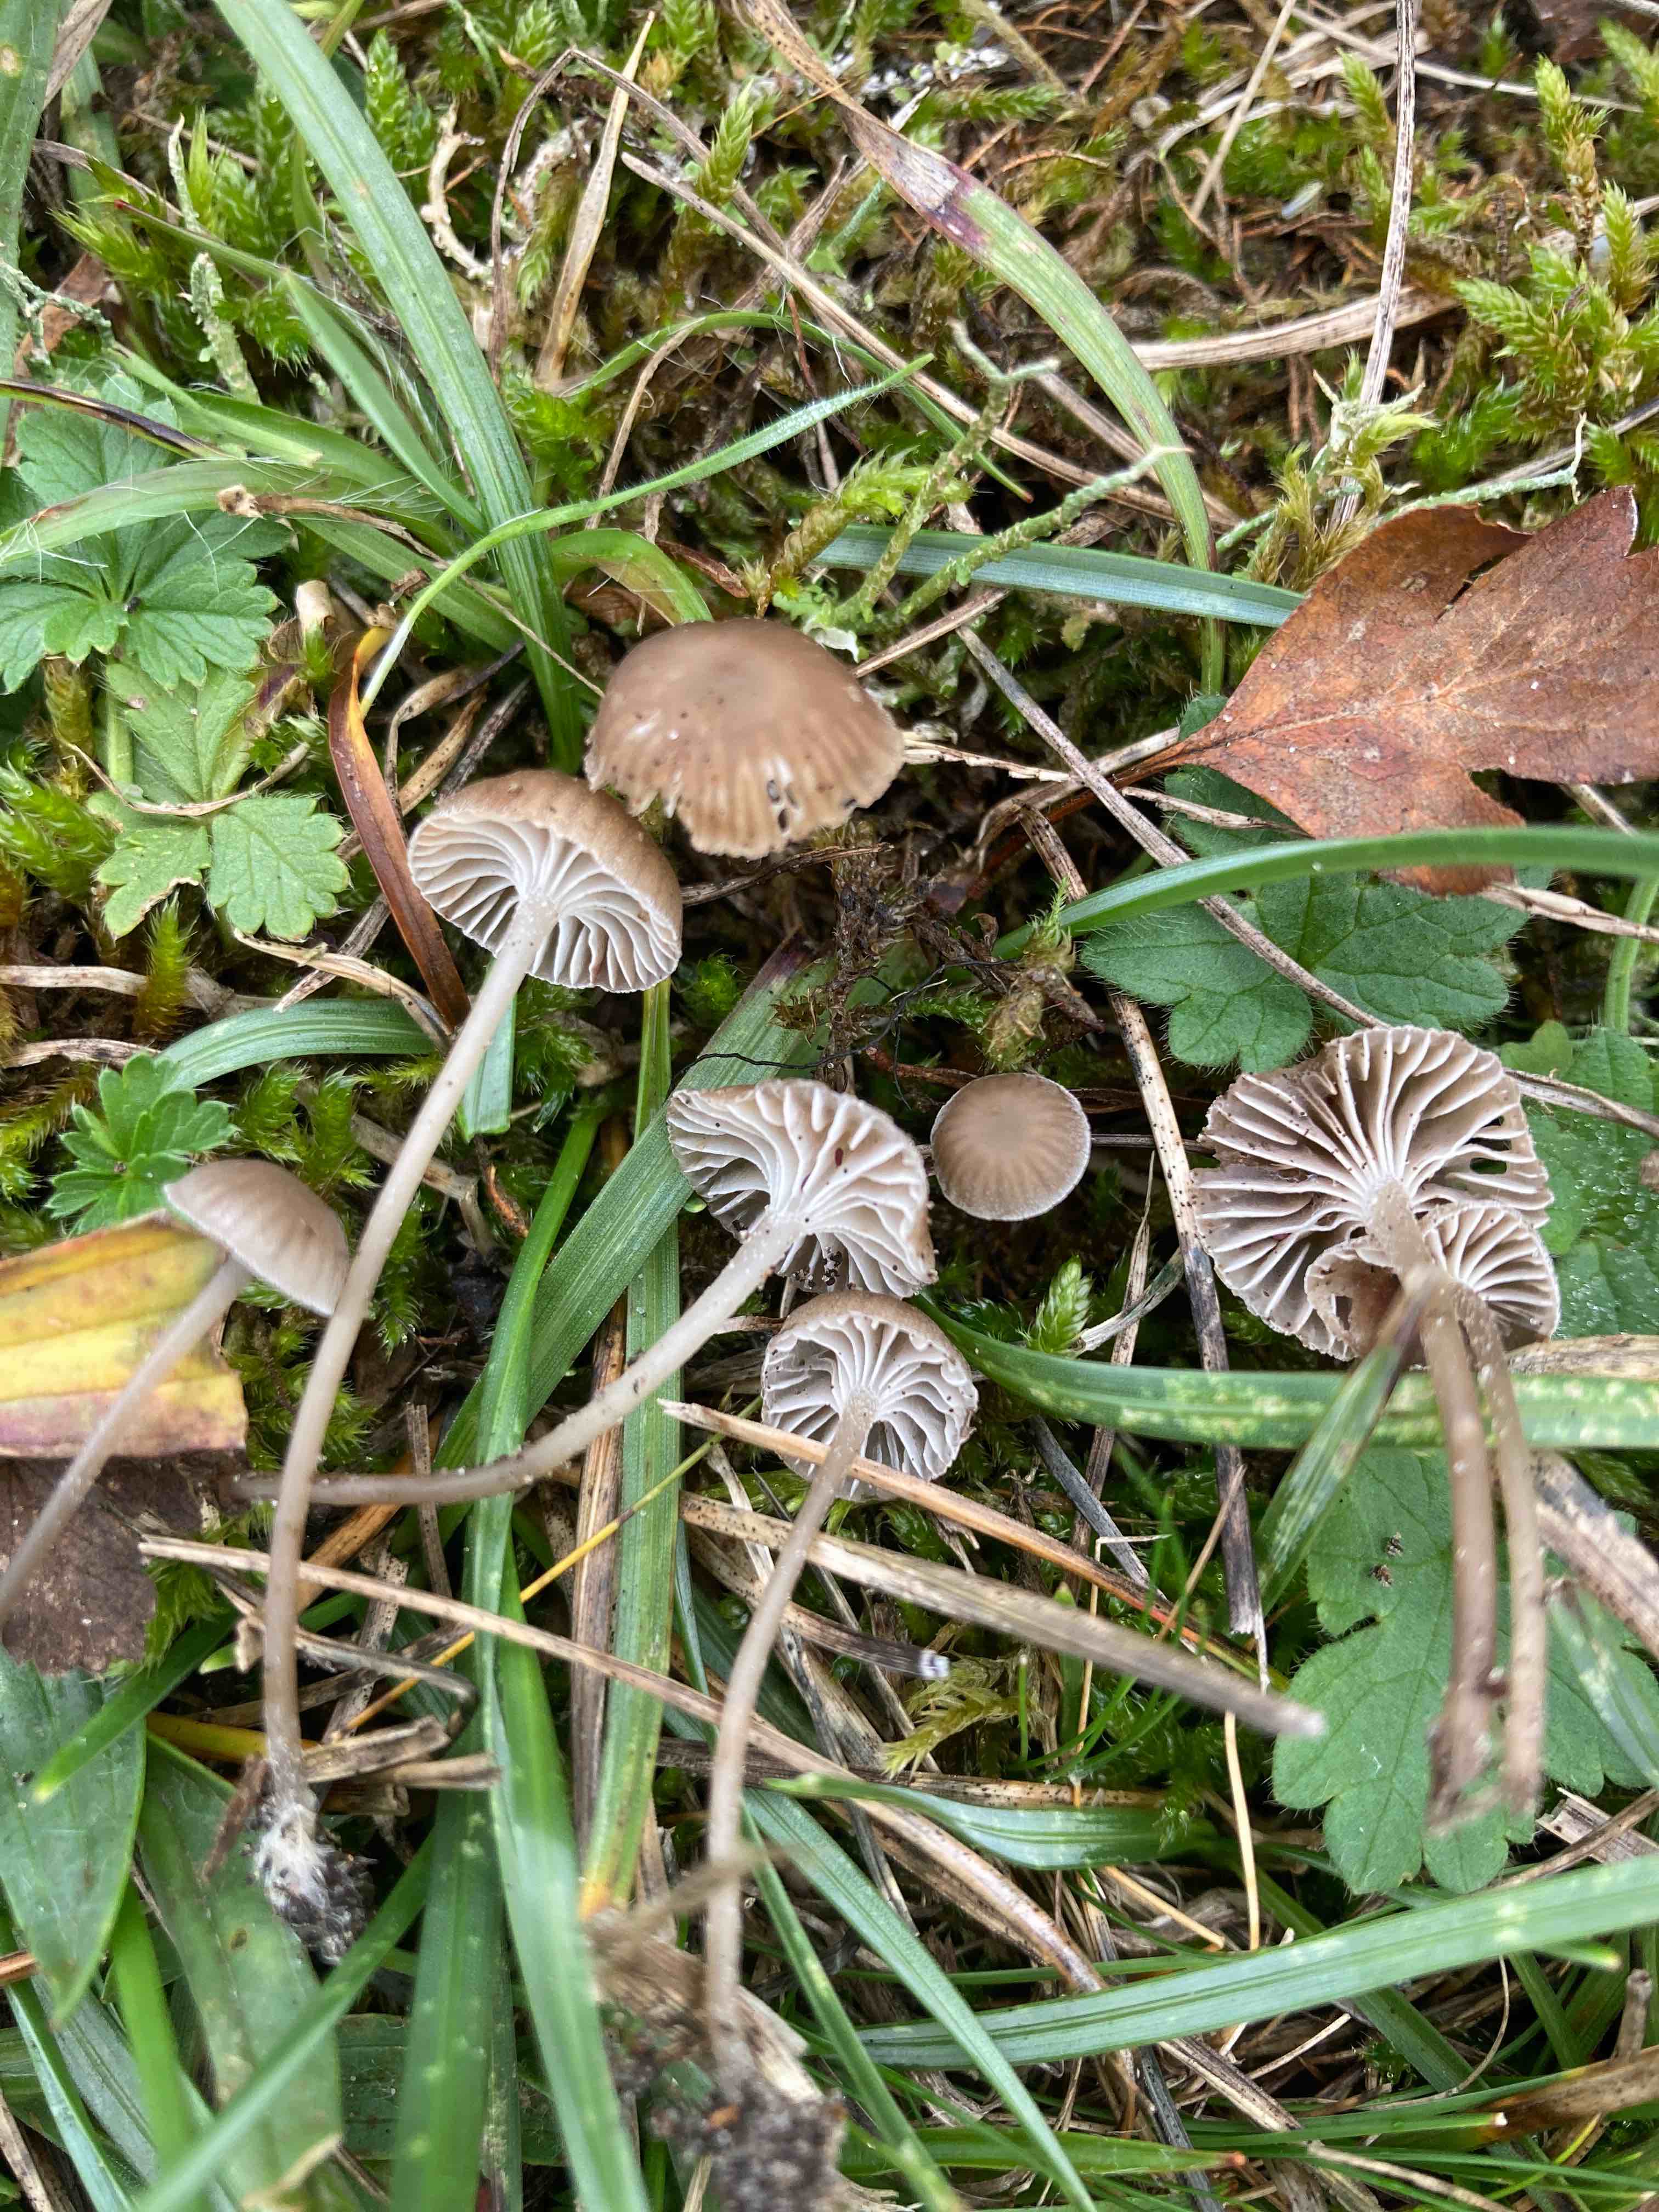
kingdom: Fungi
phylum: Basidiomycota
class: Agaricomycetes
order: Agaricales
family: Mycenaceae
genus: Mycena
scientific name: Mycena pseudopicta
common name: overdrevs-huesvamp
